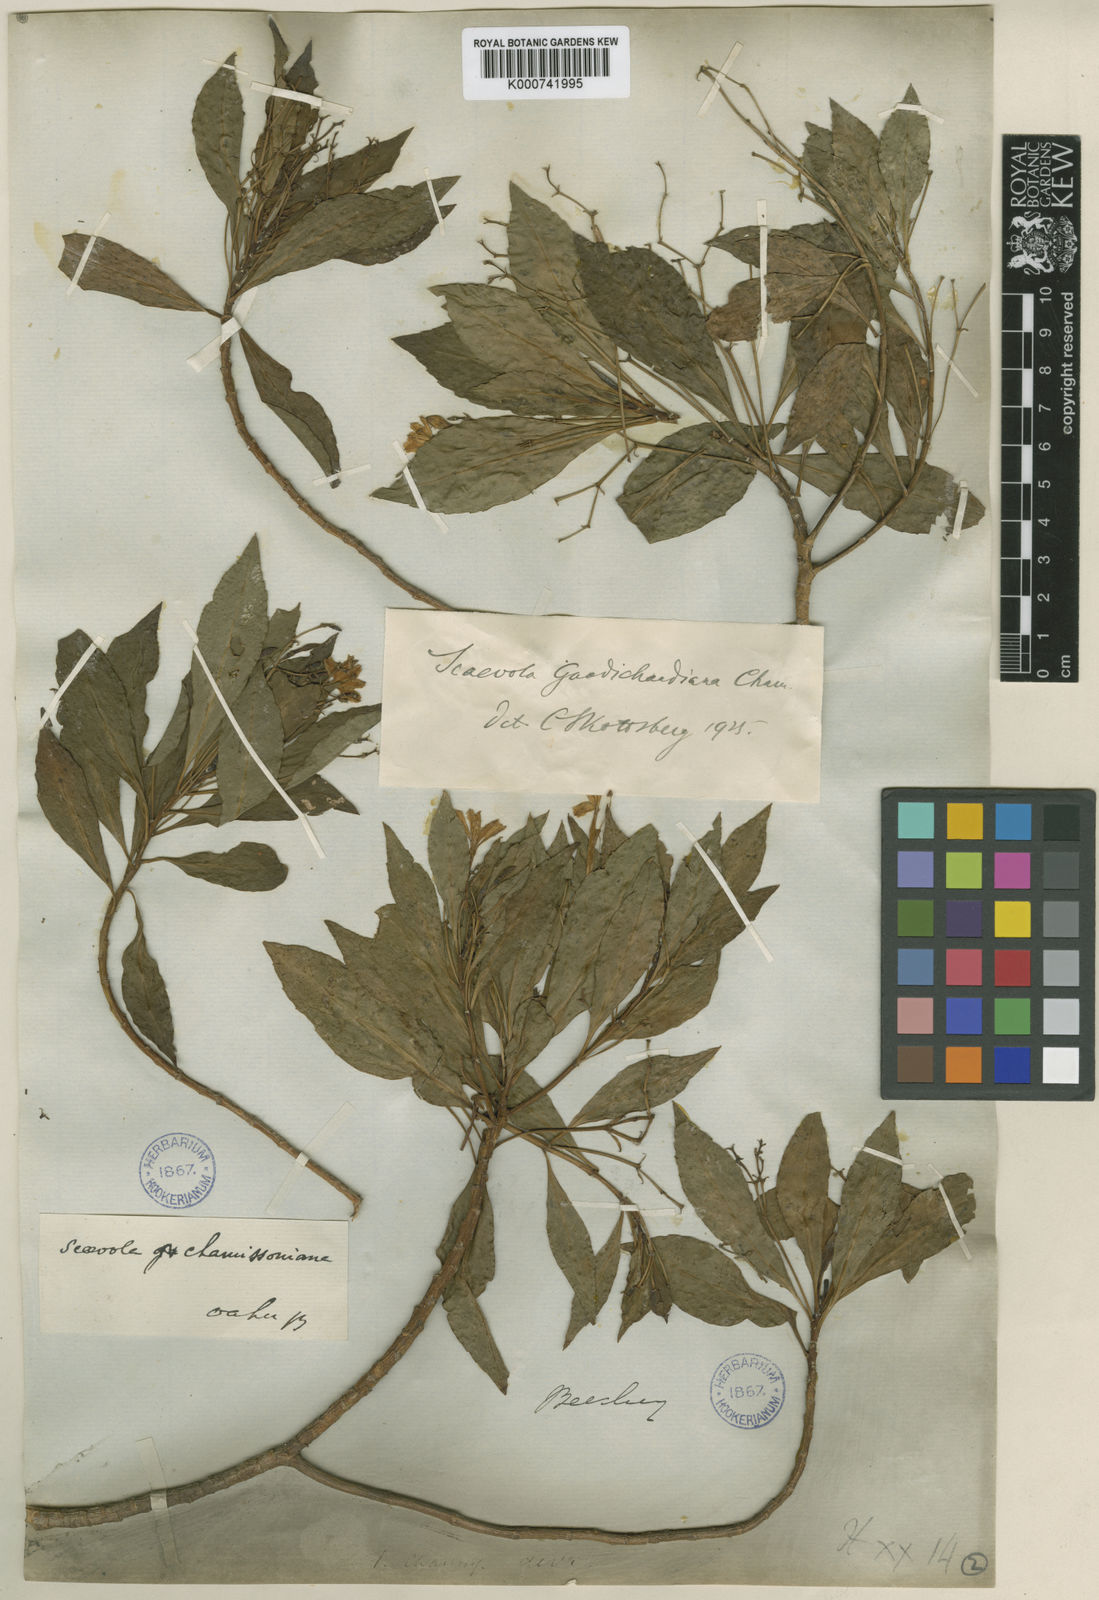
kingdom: Plantae
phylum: Tracheophyta
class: Magnoliopsida
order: Asterales
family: Goodeniaceae
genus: Scaevola
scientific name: Scaevola gaudichaudiana
